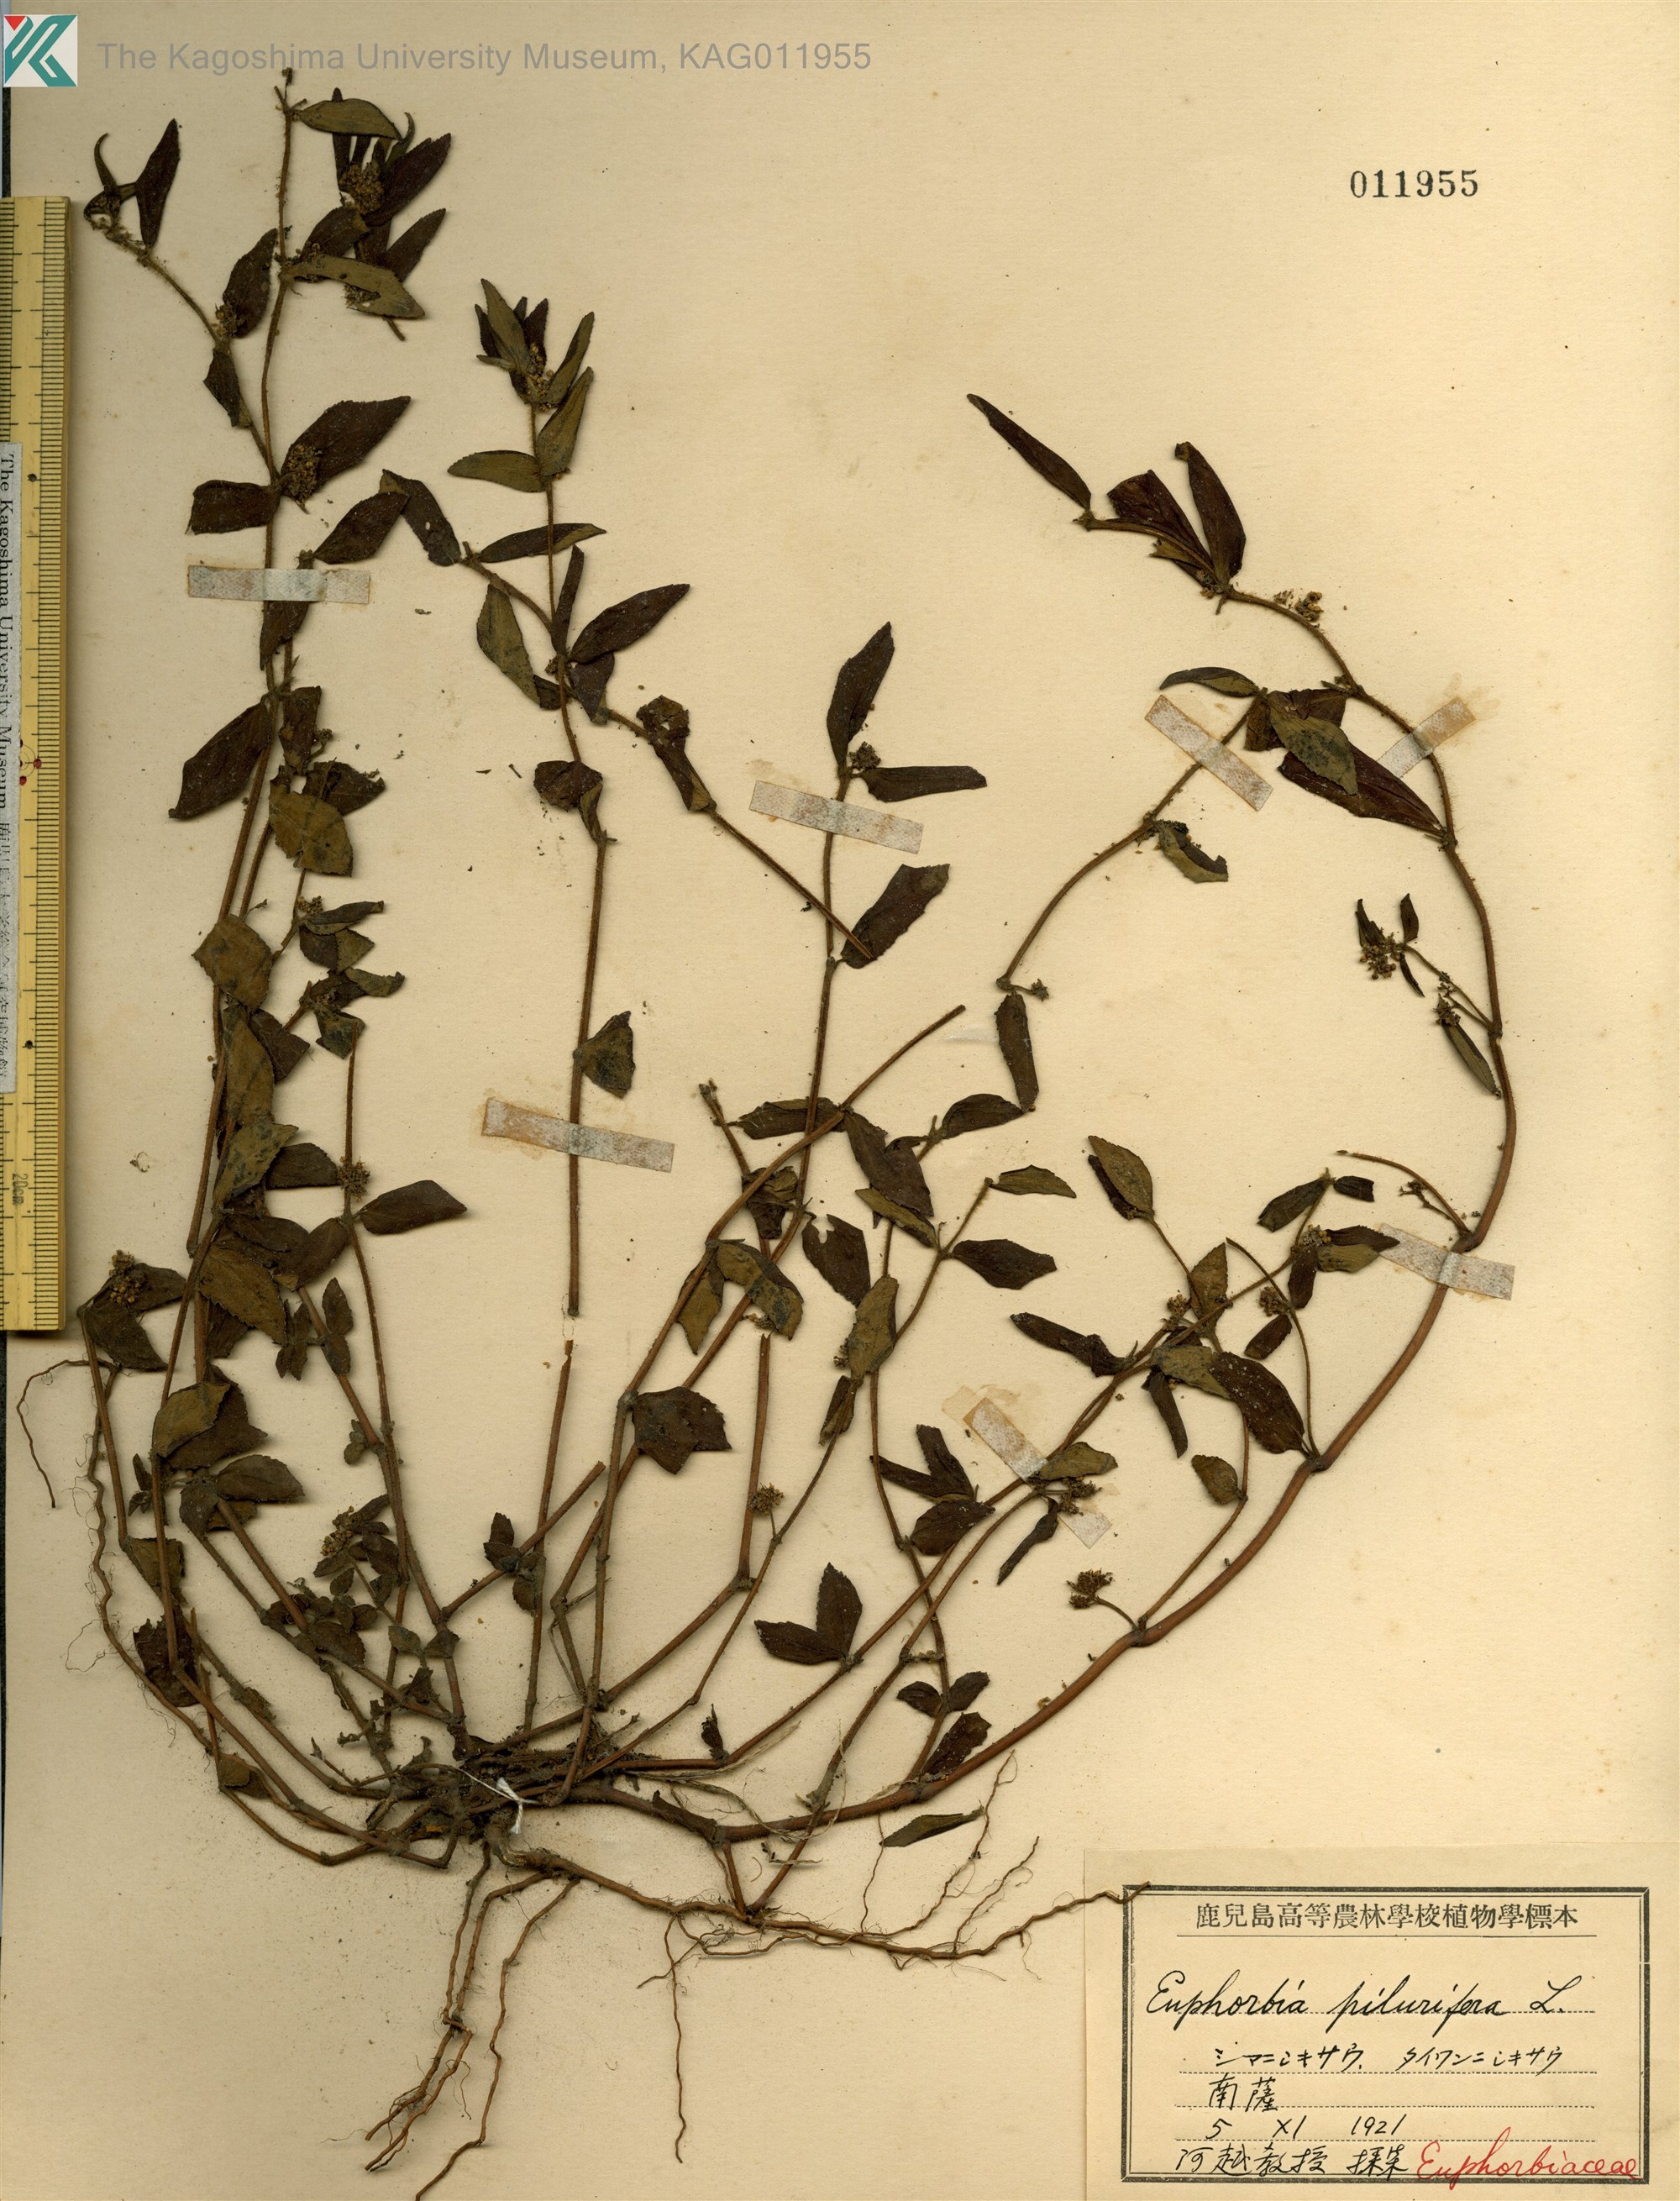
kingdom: Plantae
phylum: Tracheophyta
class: Magnoliopsida
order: Malpighiales
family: Euphorbiaceae
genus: Euphorbia
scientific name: Euphorbia hirta
